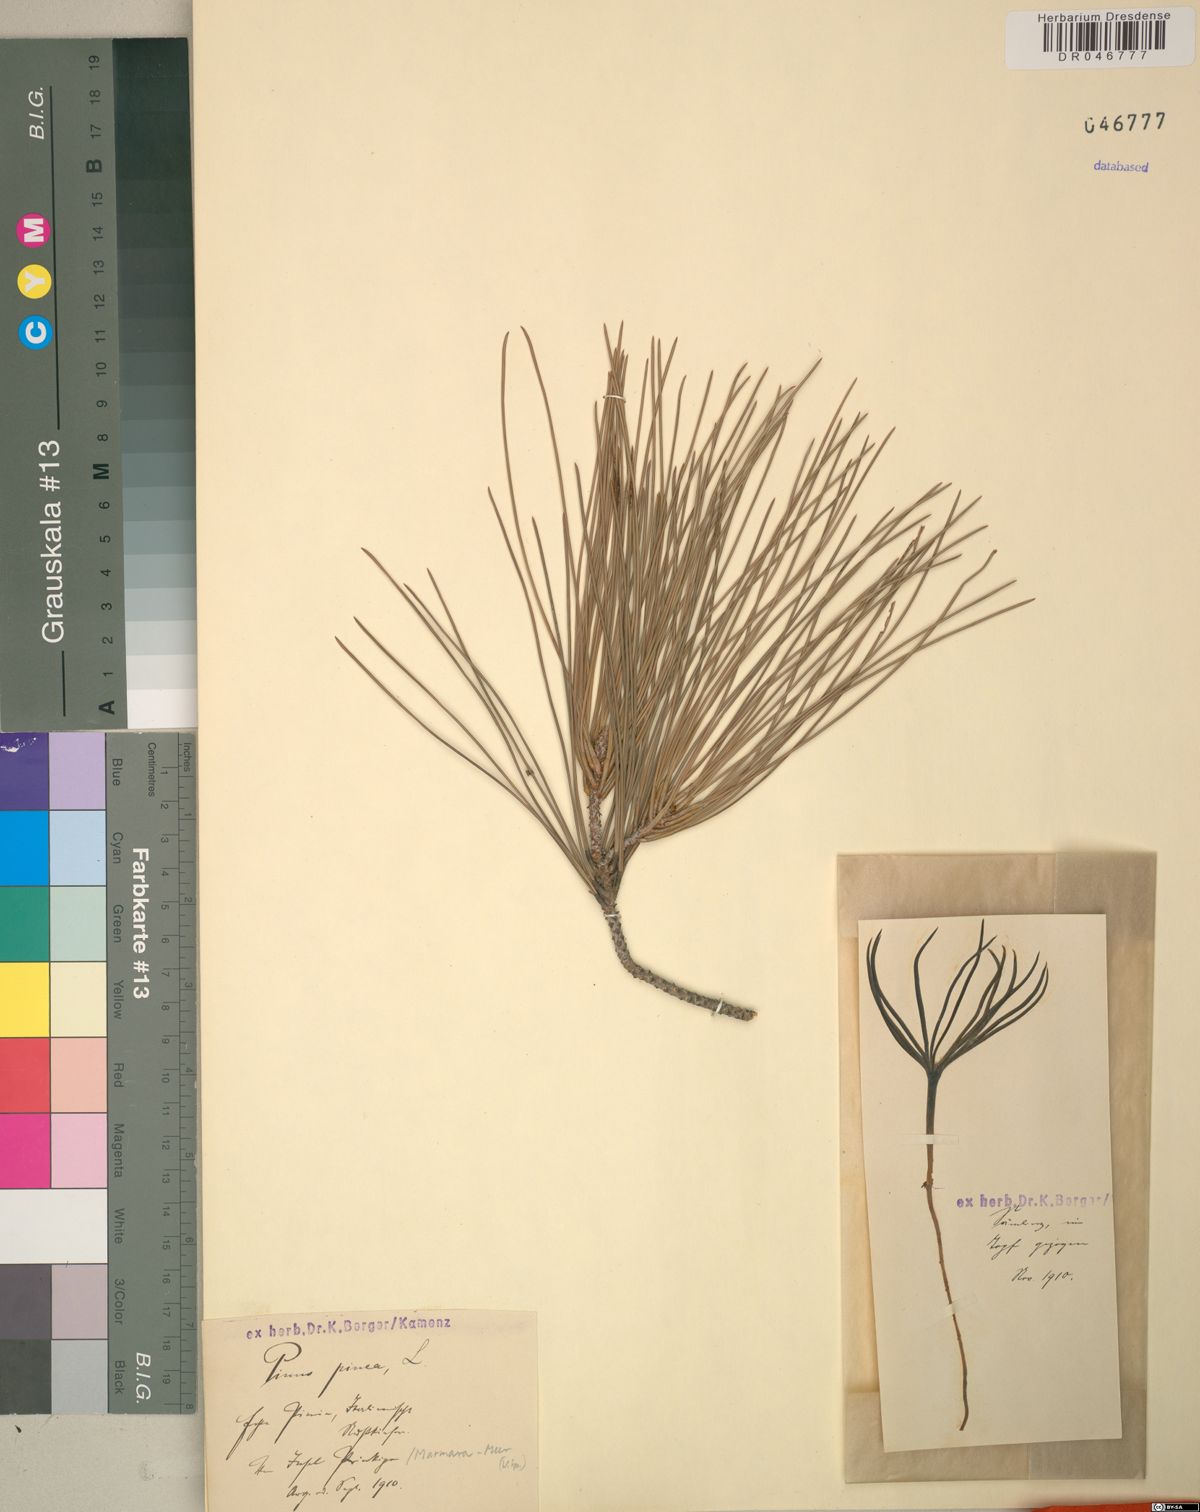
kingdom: Plantae
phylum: Tracheophyta
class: Pinopsida
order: Pinales
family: Pinaceae
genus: Pinus
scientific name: Pinus pinea
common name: Italian stone pine
